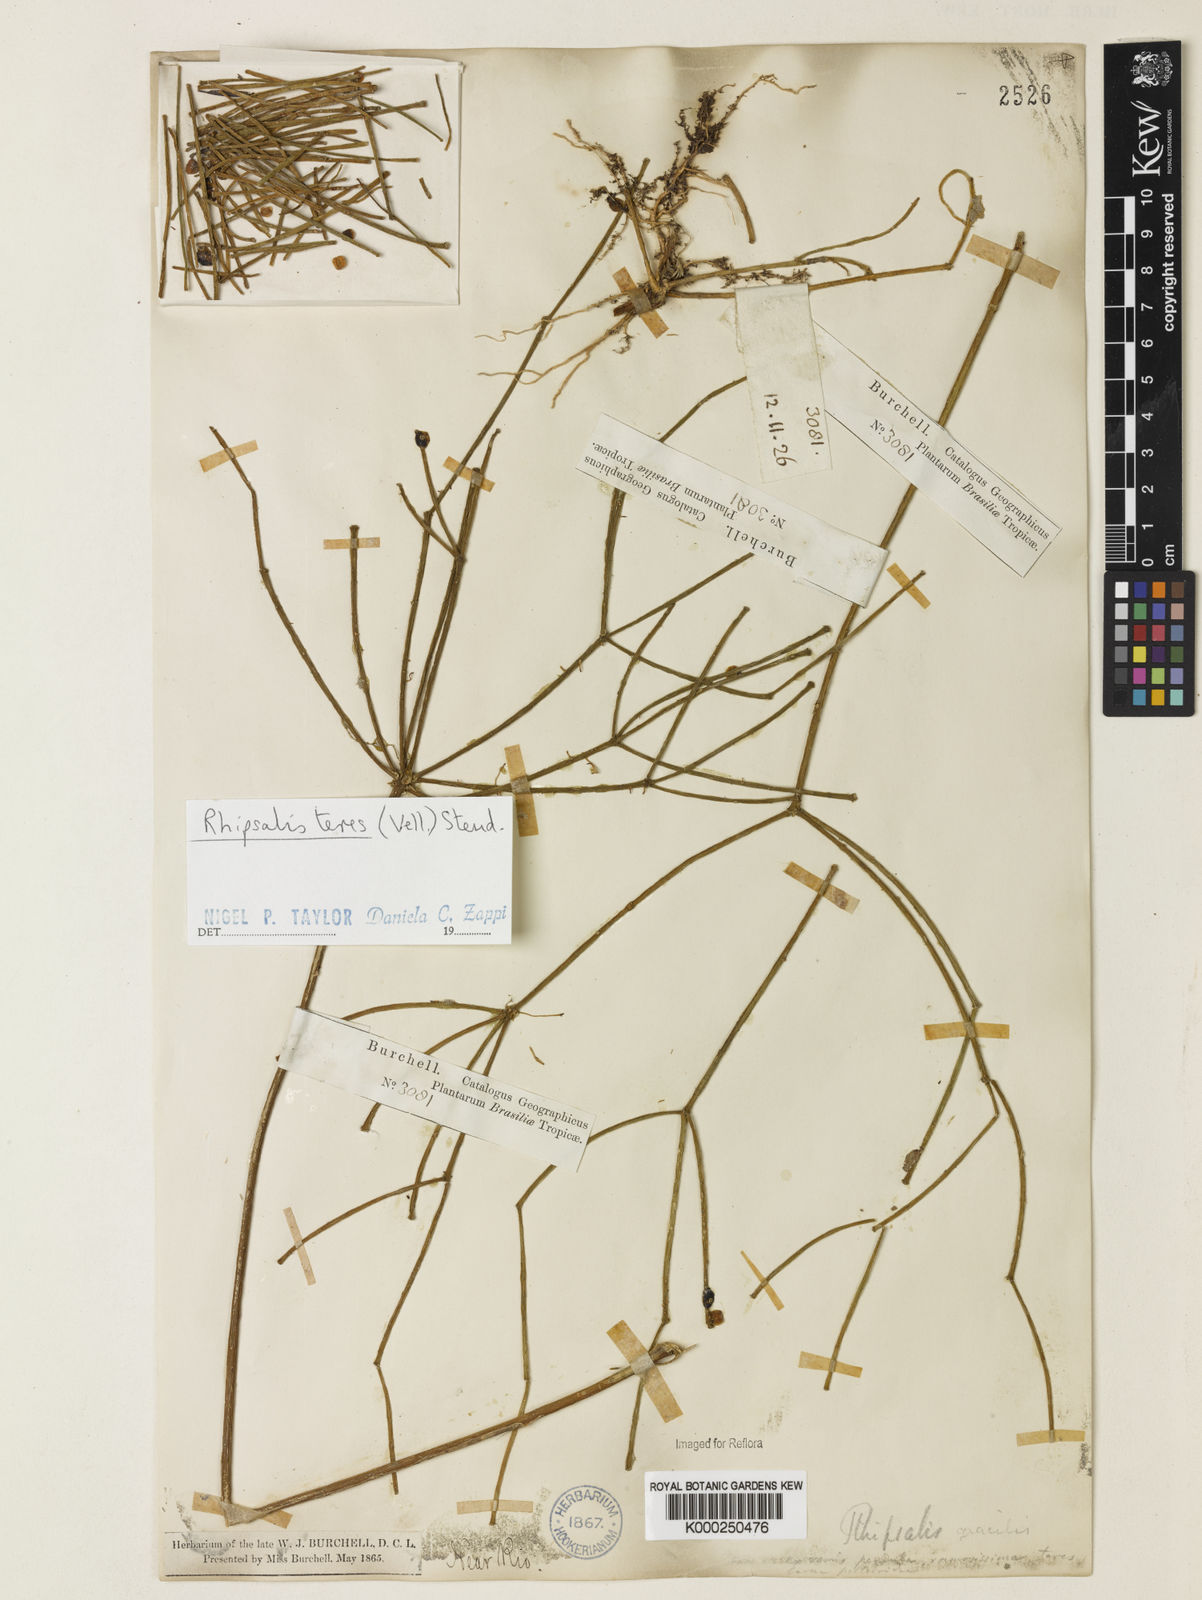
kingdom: Plantae
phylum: Tracheophyta
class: Magnoliopsida
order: Caryophyllales
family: Cactaceae
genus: Rhipsalis
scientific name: Rhipsalis teres
